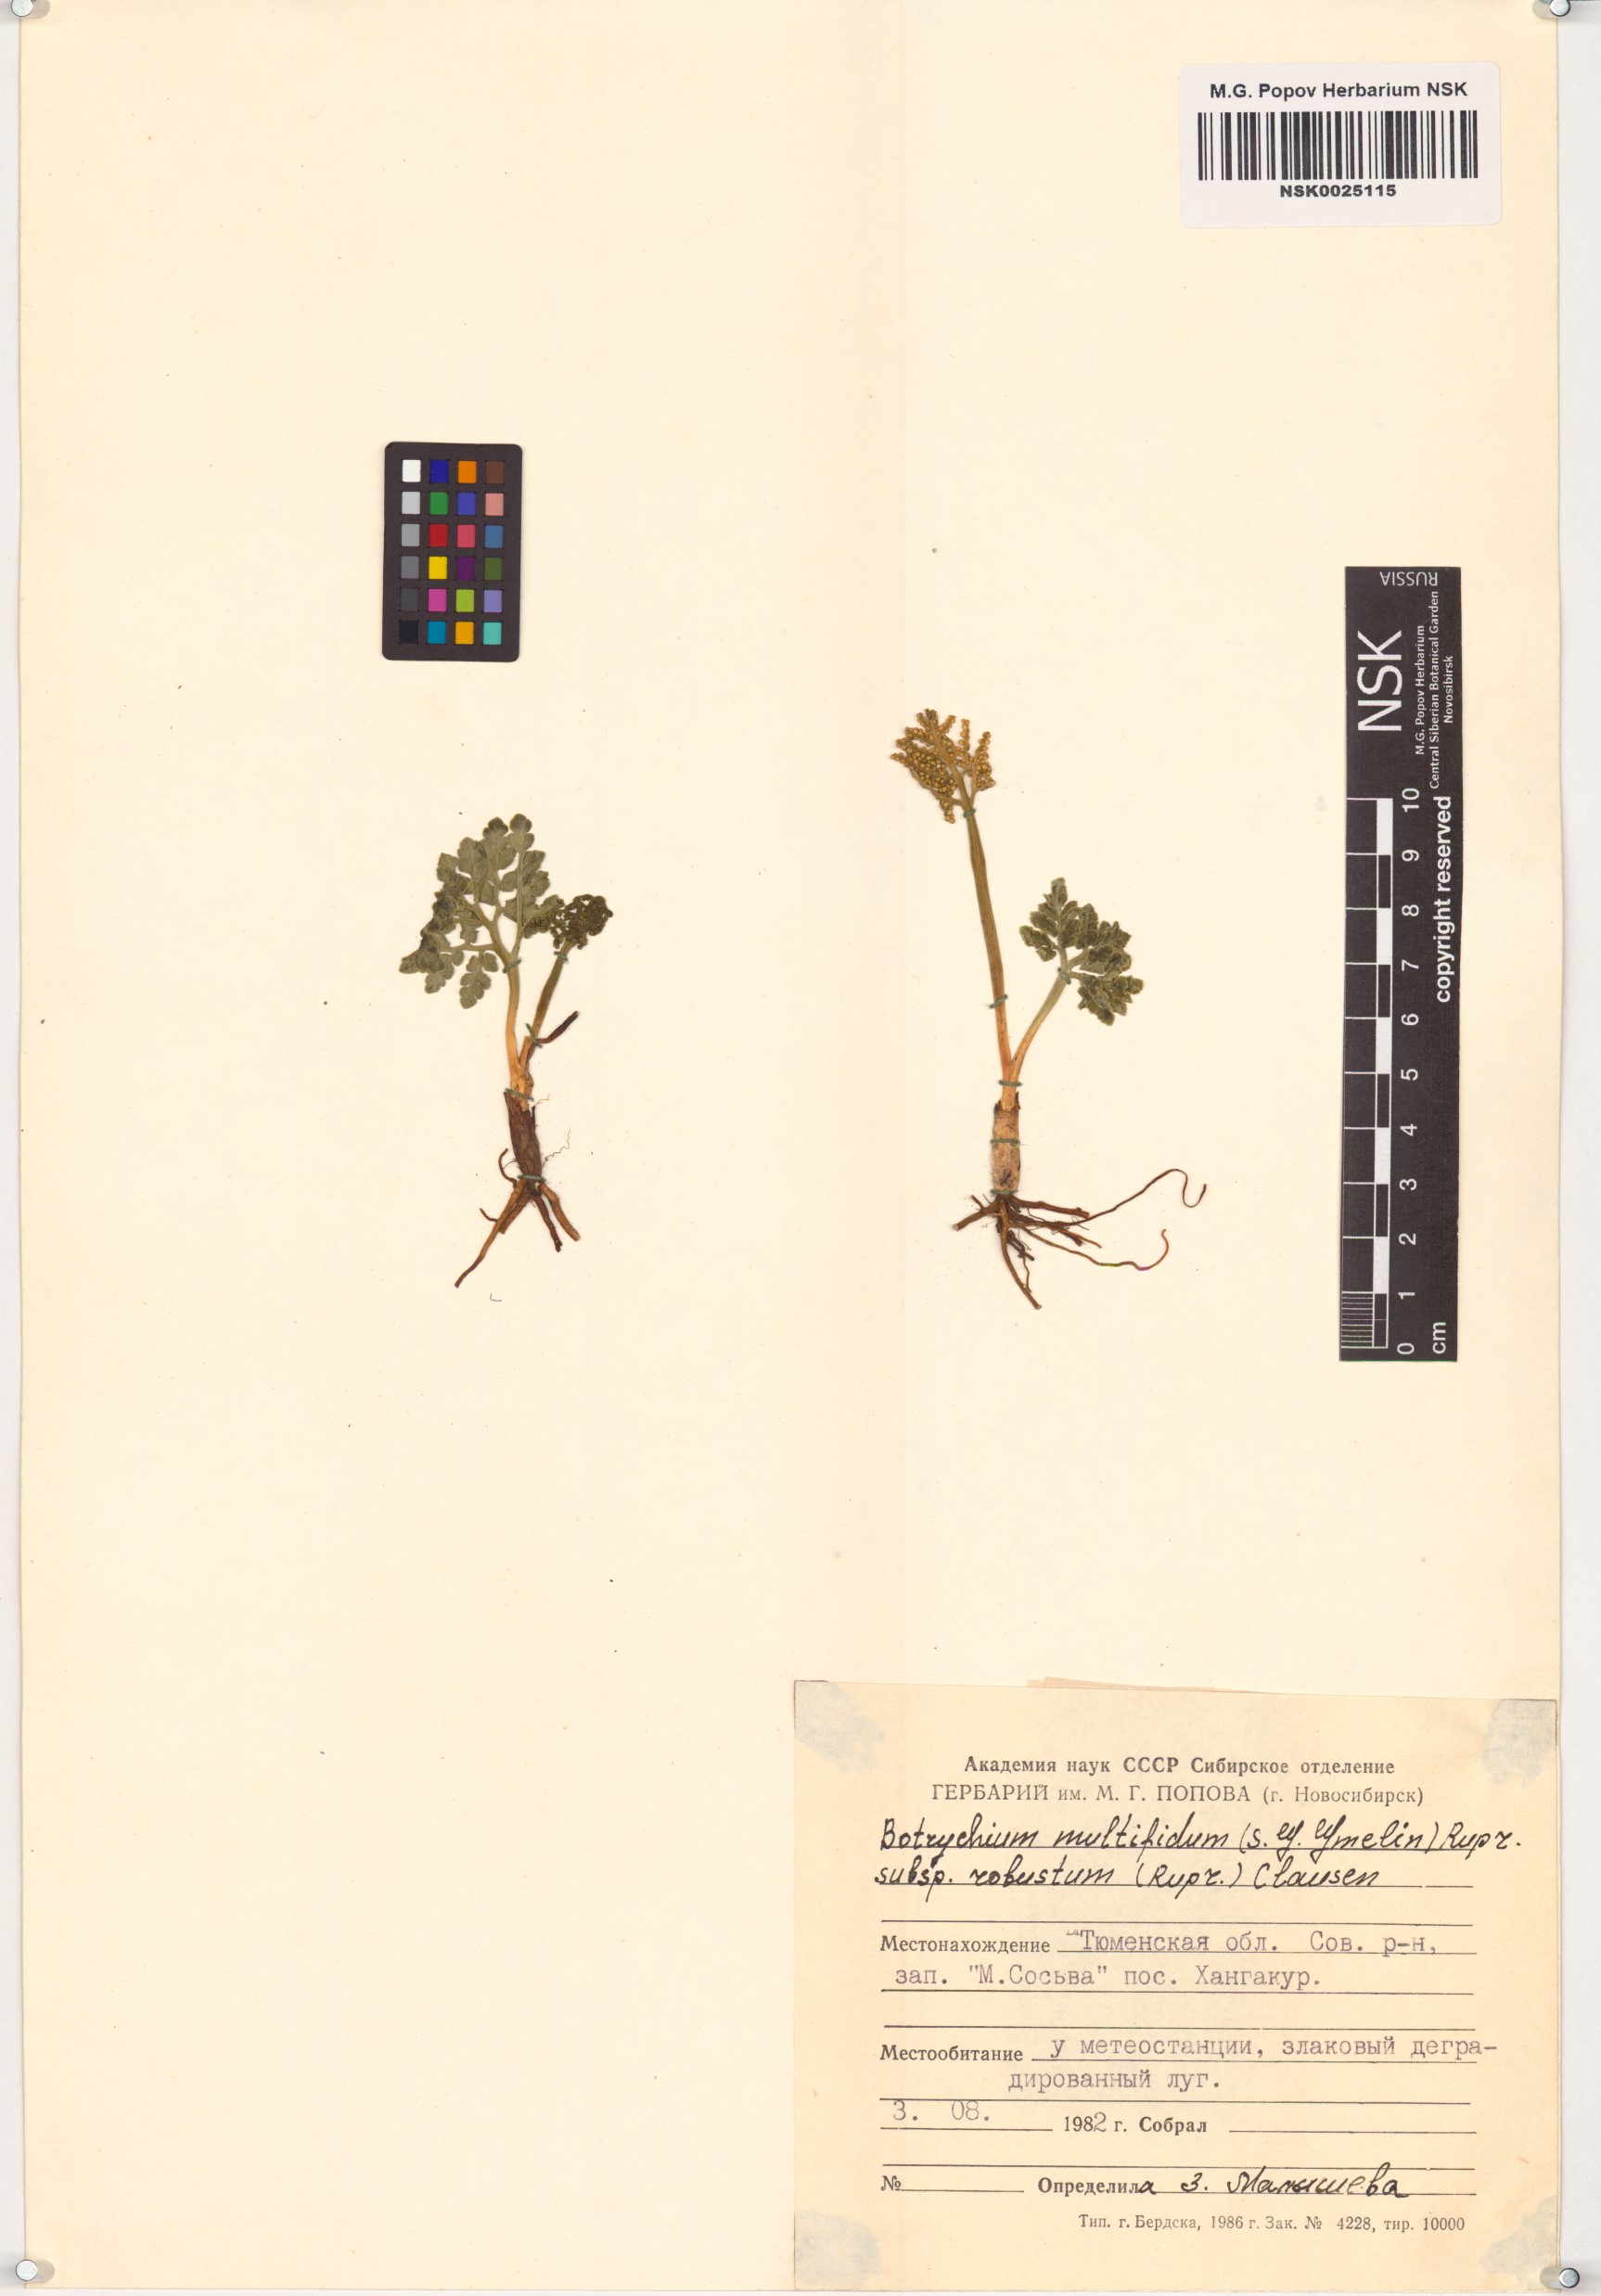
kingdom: Plantae
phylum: Tracheophyta
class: Polypodiopsida
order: Ophioglossales
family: Ophioglossaceae
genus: Sceptridium
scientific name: Sceptridium multifidum
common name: Leathery grape fern
